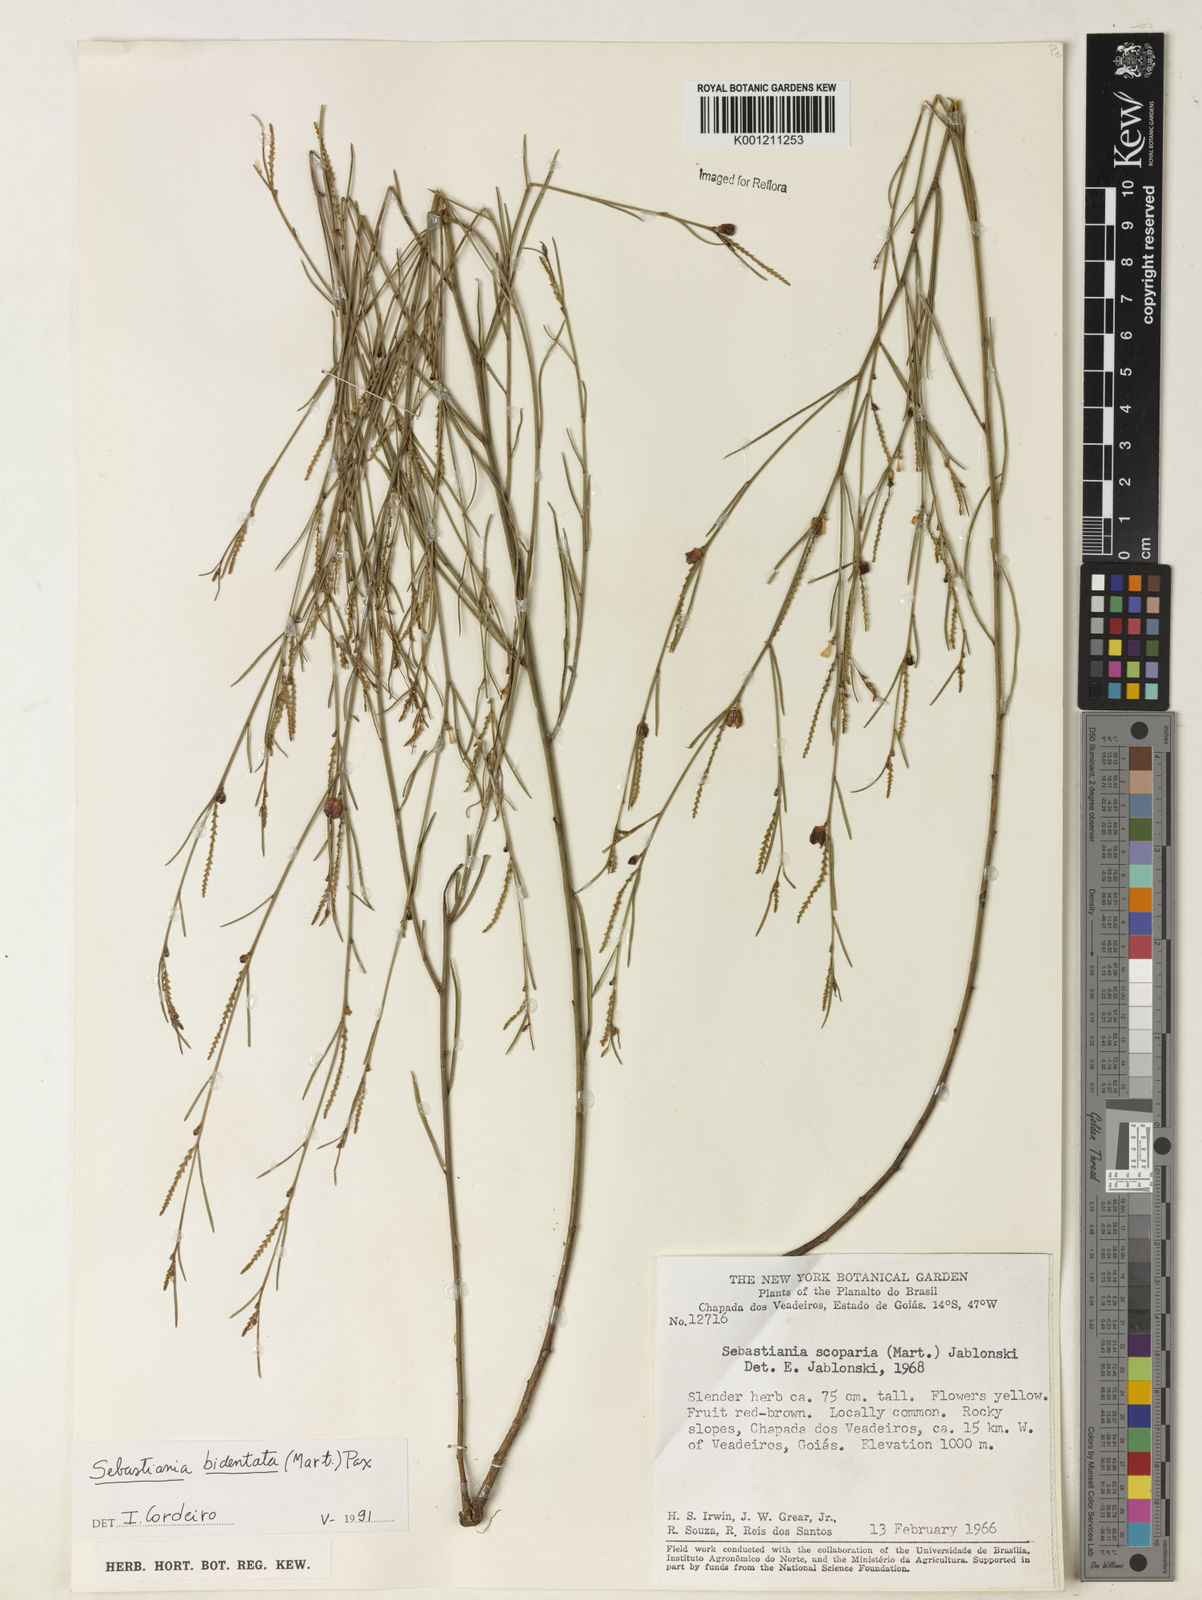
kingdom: Plantae
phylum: Tracheophyta
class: Magnoliopsida
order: Malpighiales
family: Euphorbiaceae
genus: Microstachys
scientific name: Microstachys bidentata
